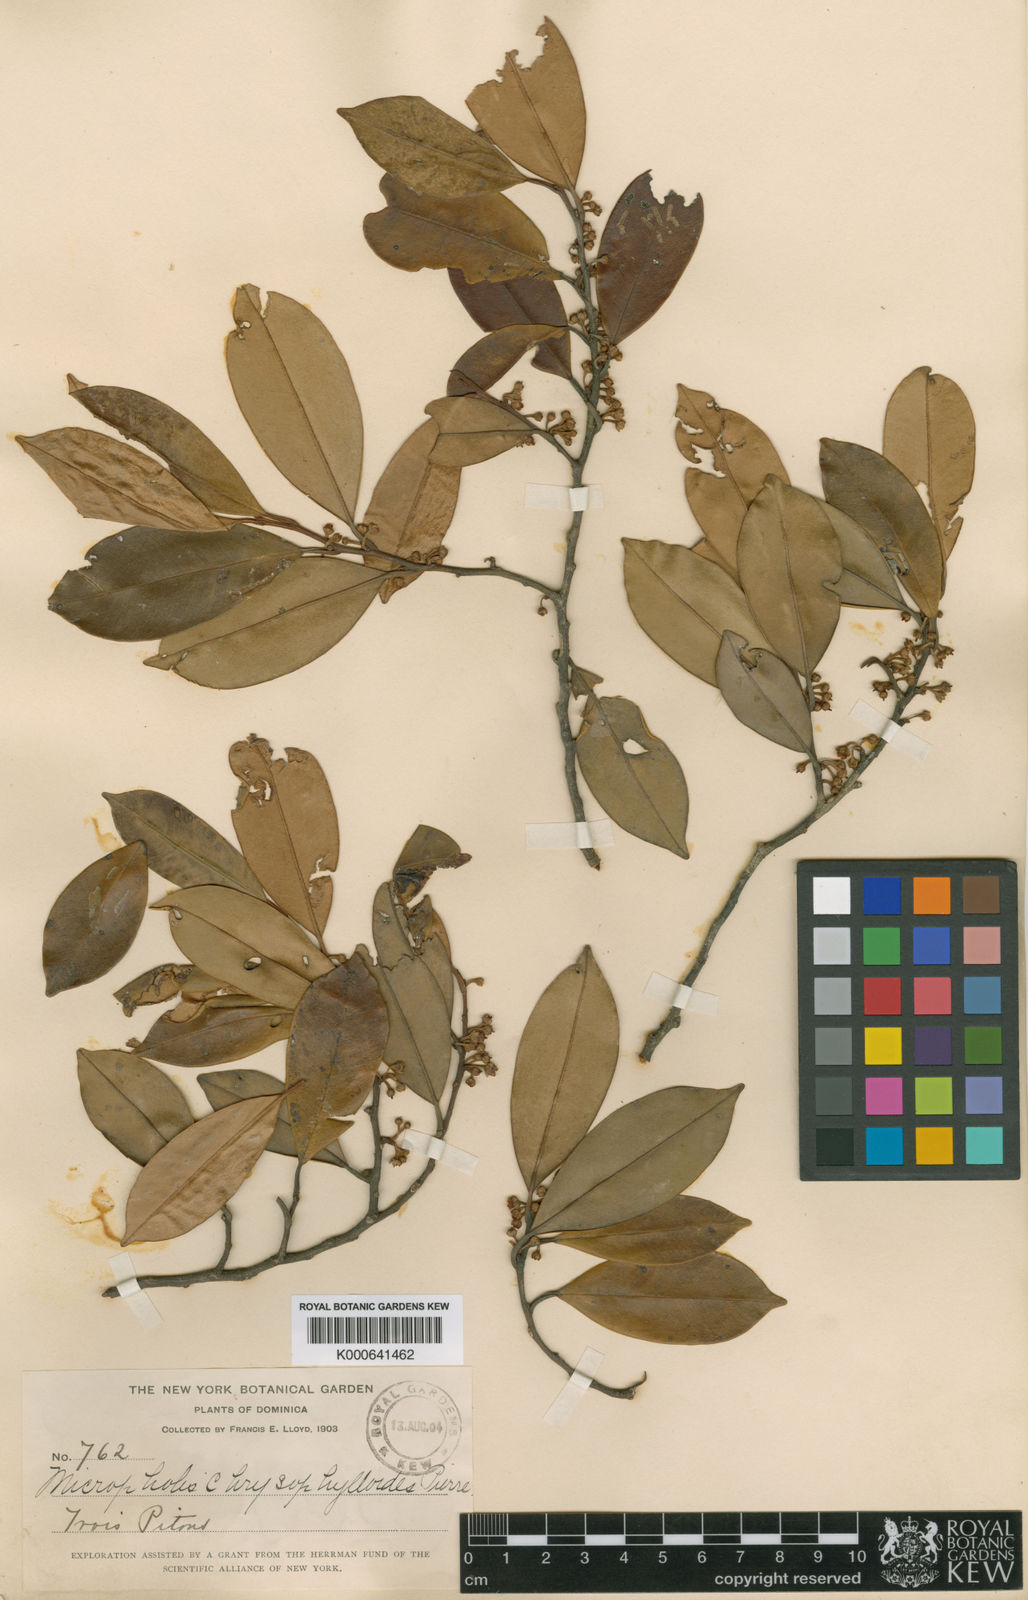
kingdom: Plantae
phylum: Tracheophyta
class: Magnoliopsida
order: Ericales
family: Sapotaceae
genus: Micropholis
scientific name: Micropholis guyanensis
